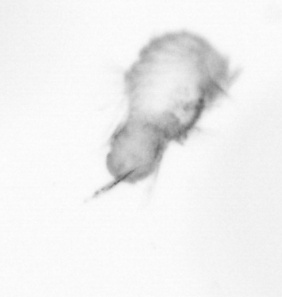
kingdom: Animalia
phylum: Annelida
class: Polychaeta
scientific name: Polychaeta
